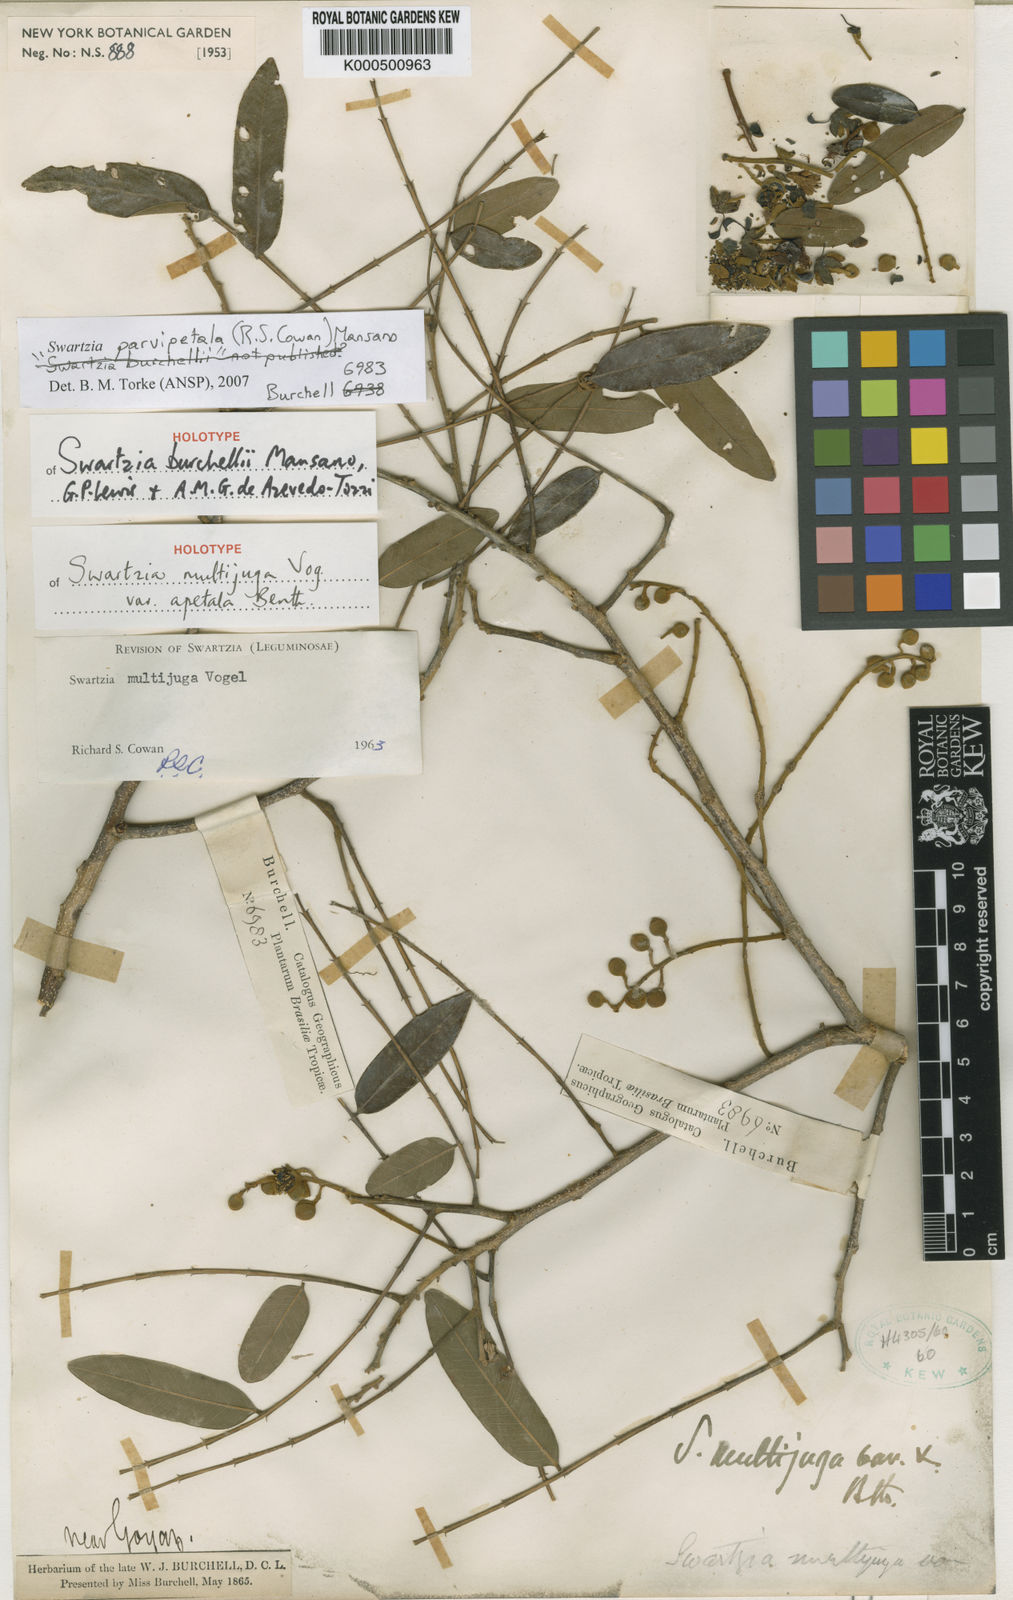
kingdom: Plantae
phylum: Tracheophyta
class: Magnoliopsida
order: Fabales
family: Fabaceae
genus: Swartzia
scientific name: Swartzia parvipetala
